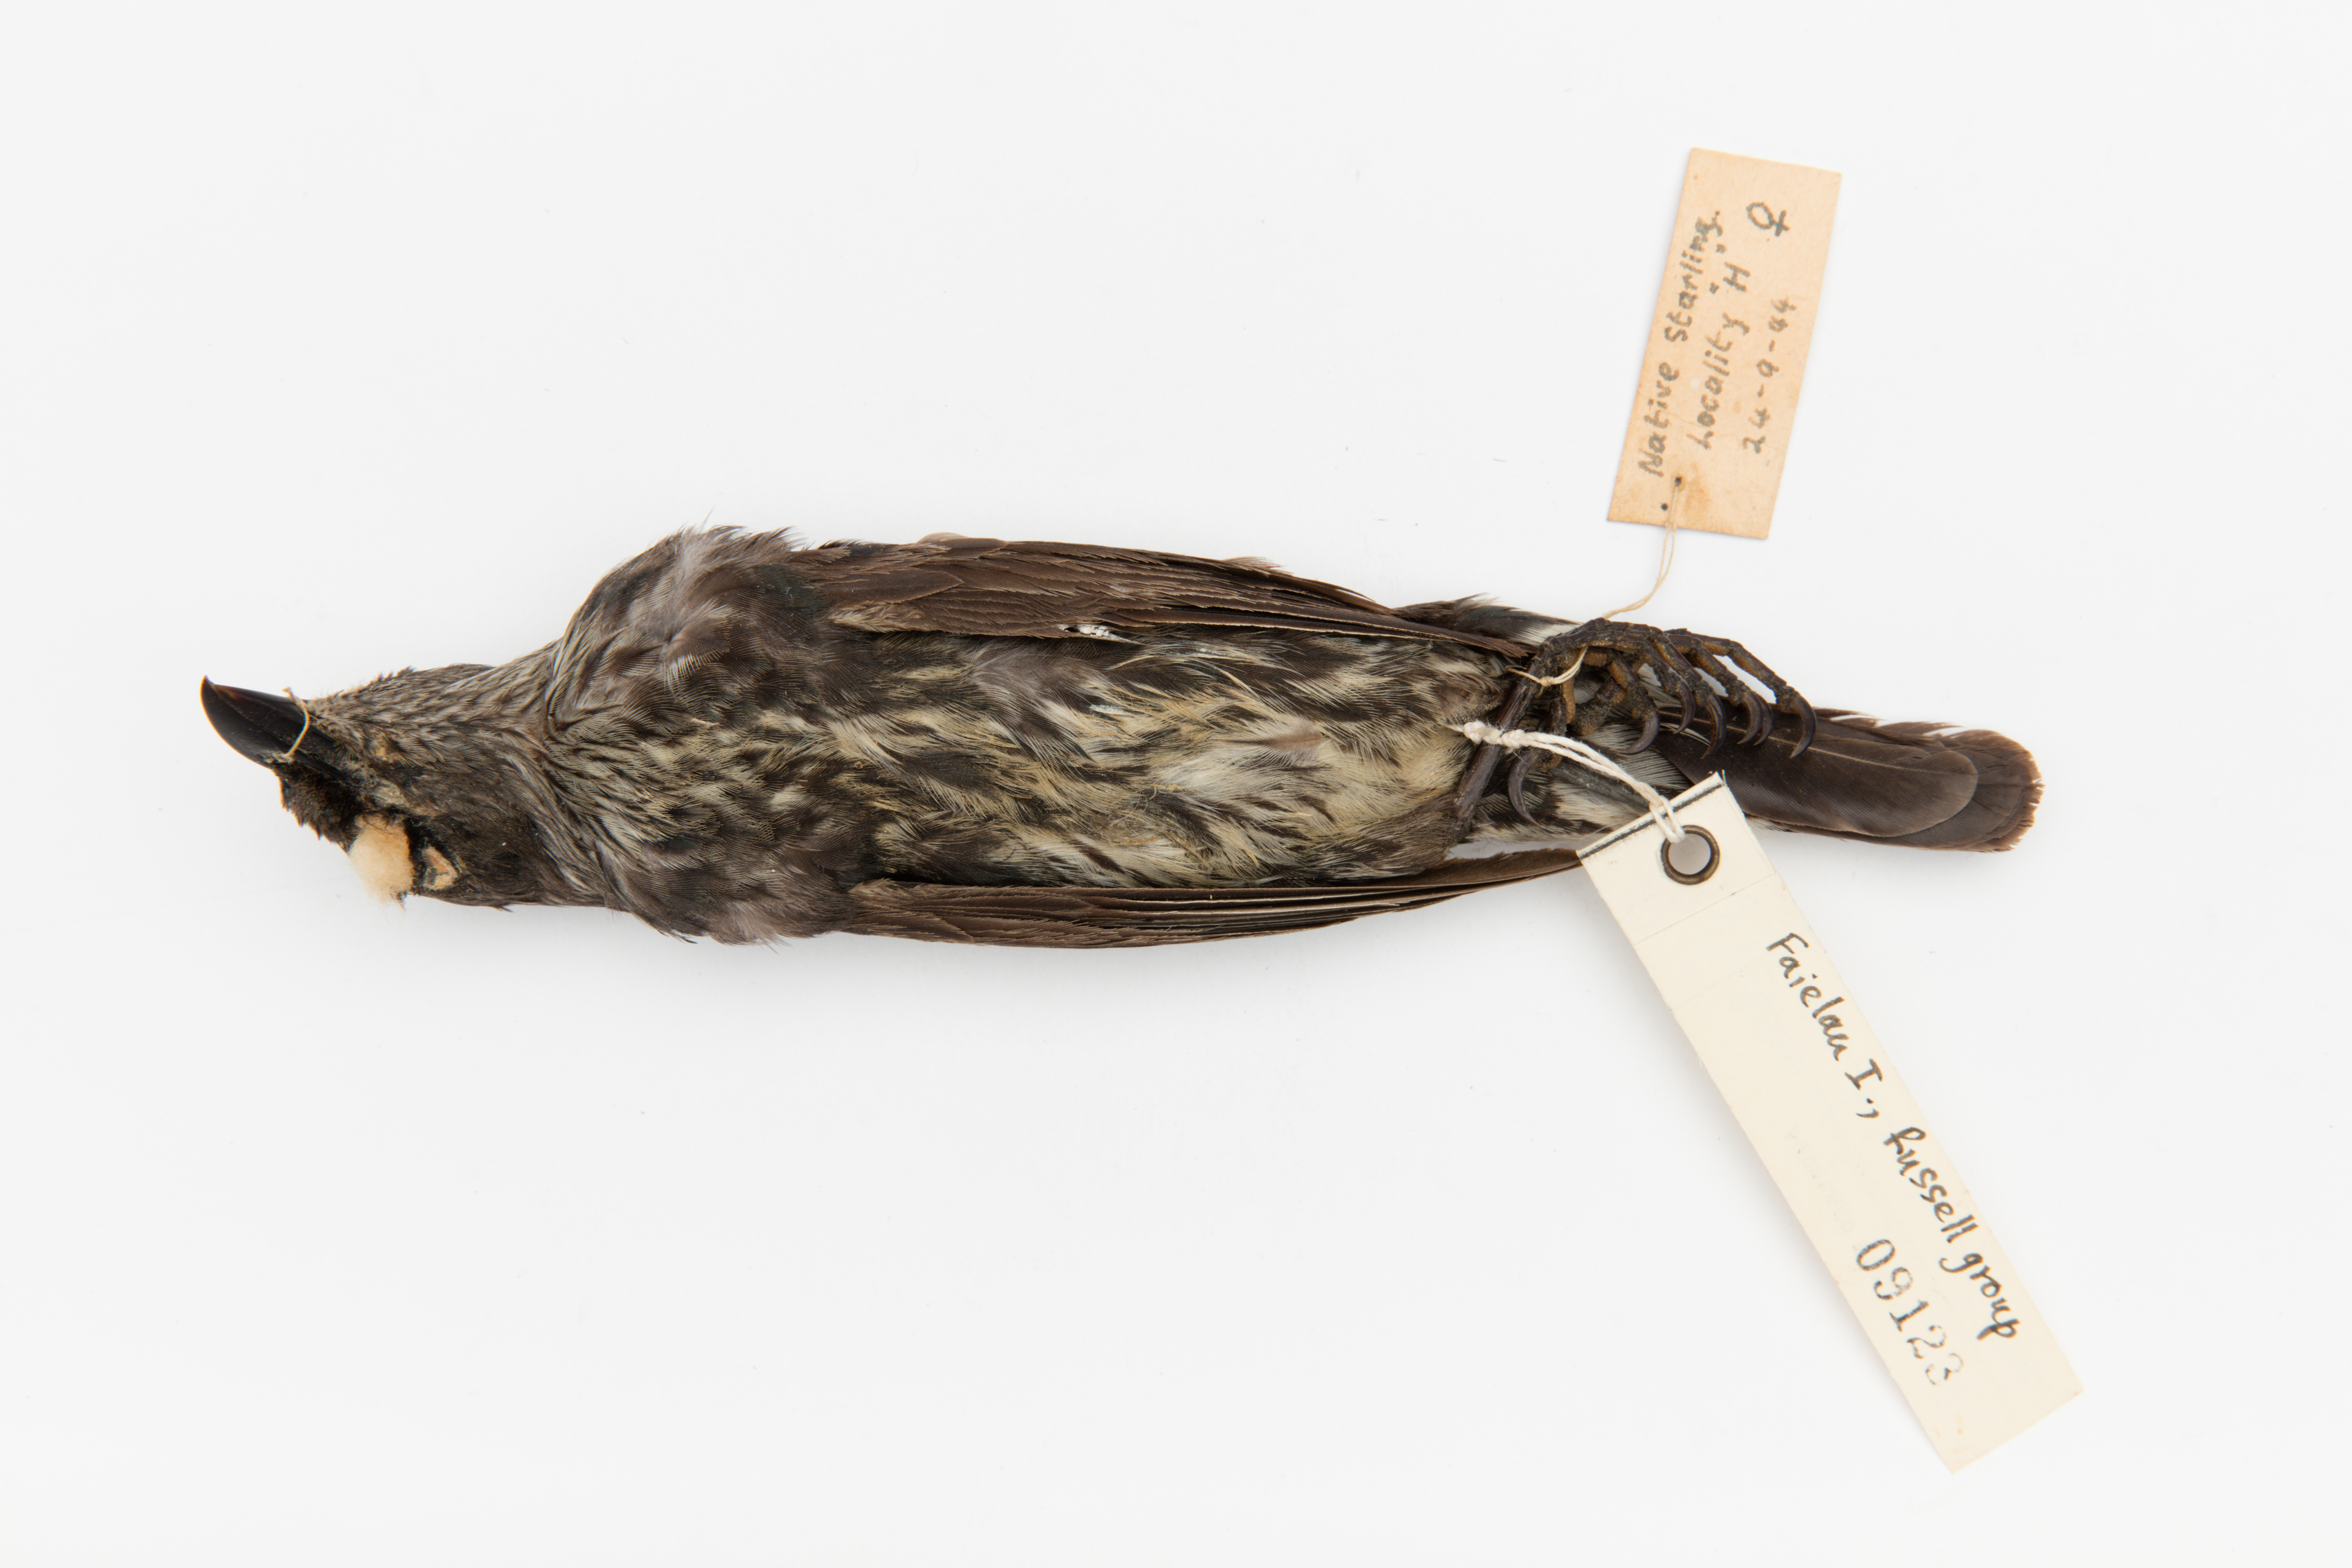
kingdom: Animalia
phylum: Chordata
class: Aves
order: Passeriformes
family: Sturnidae
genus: Aplonis
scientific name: Aplonis cantoroides
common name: Singing starling
